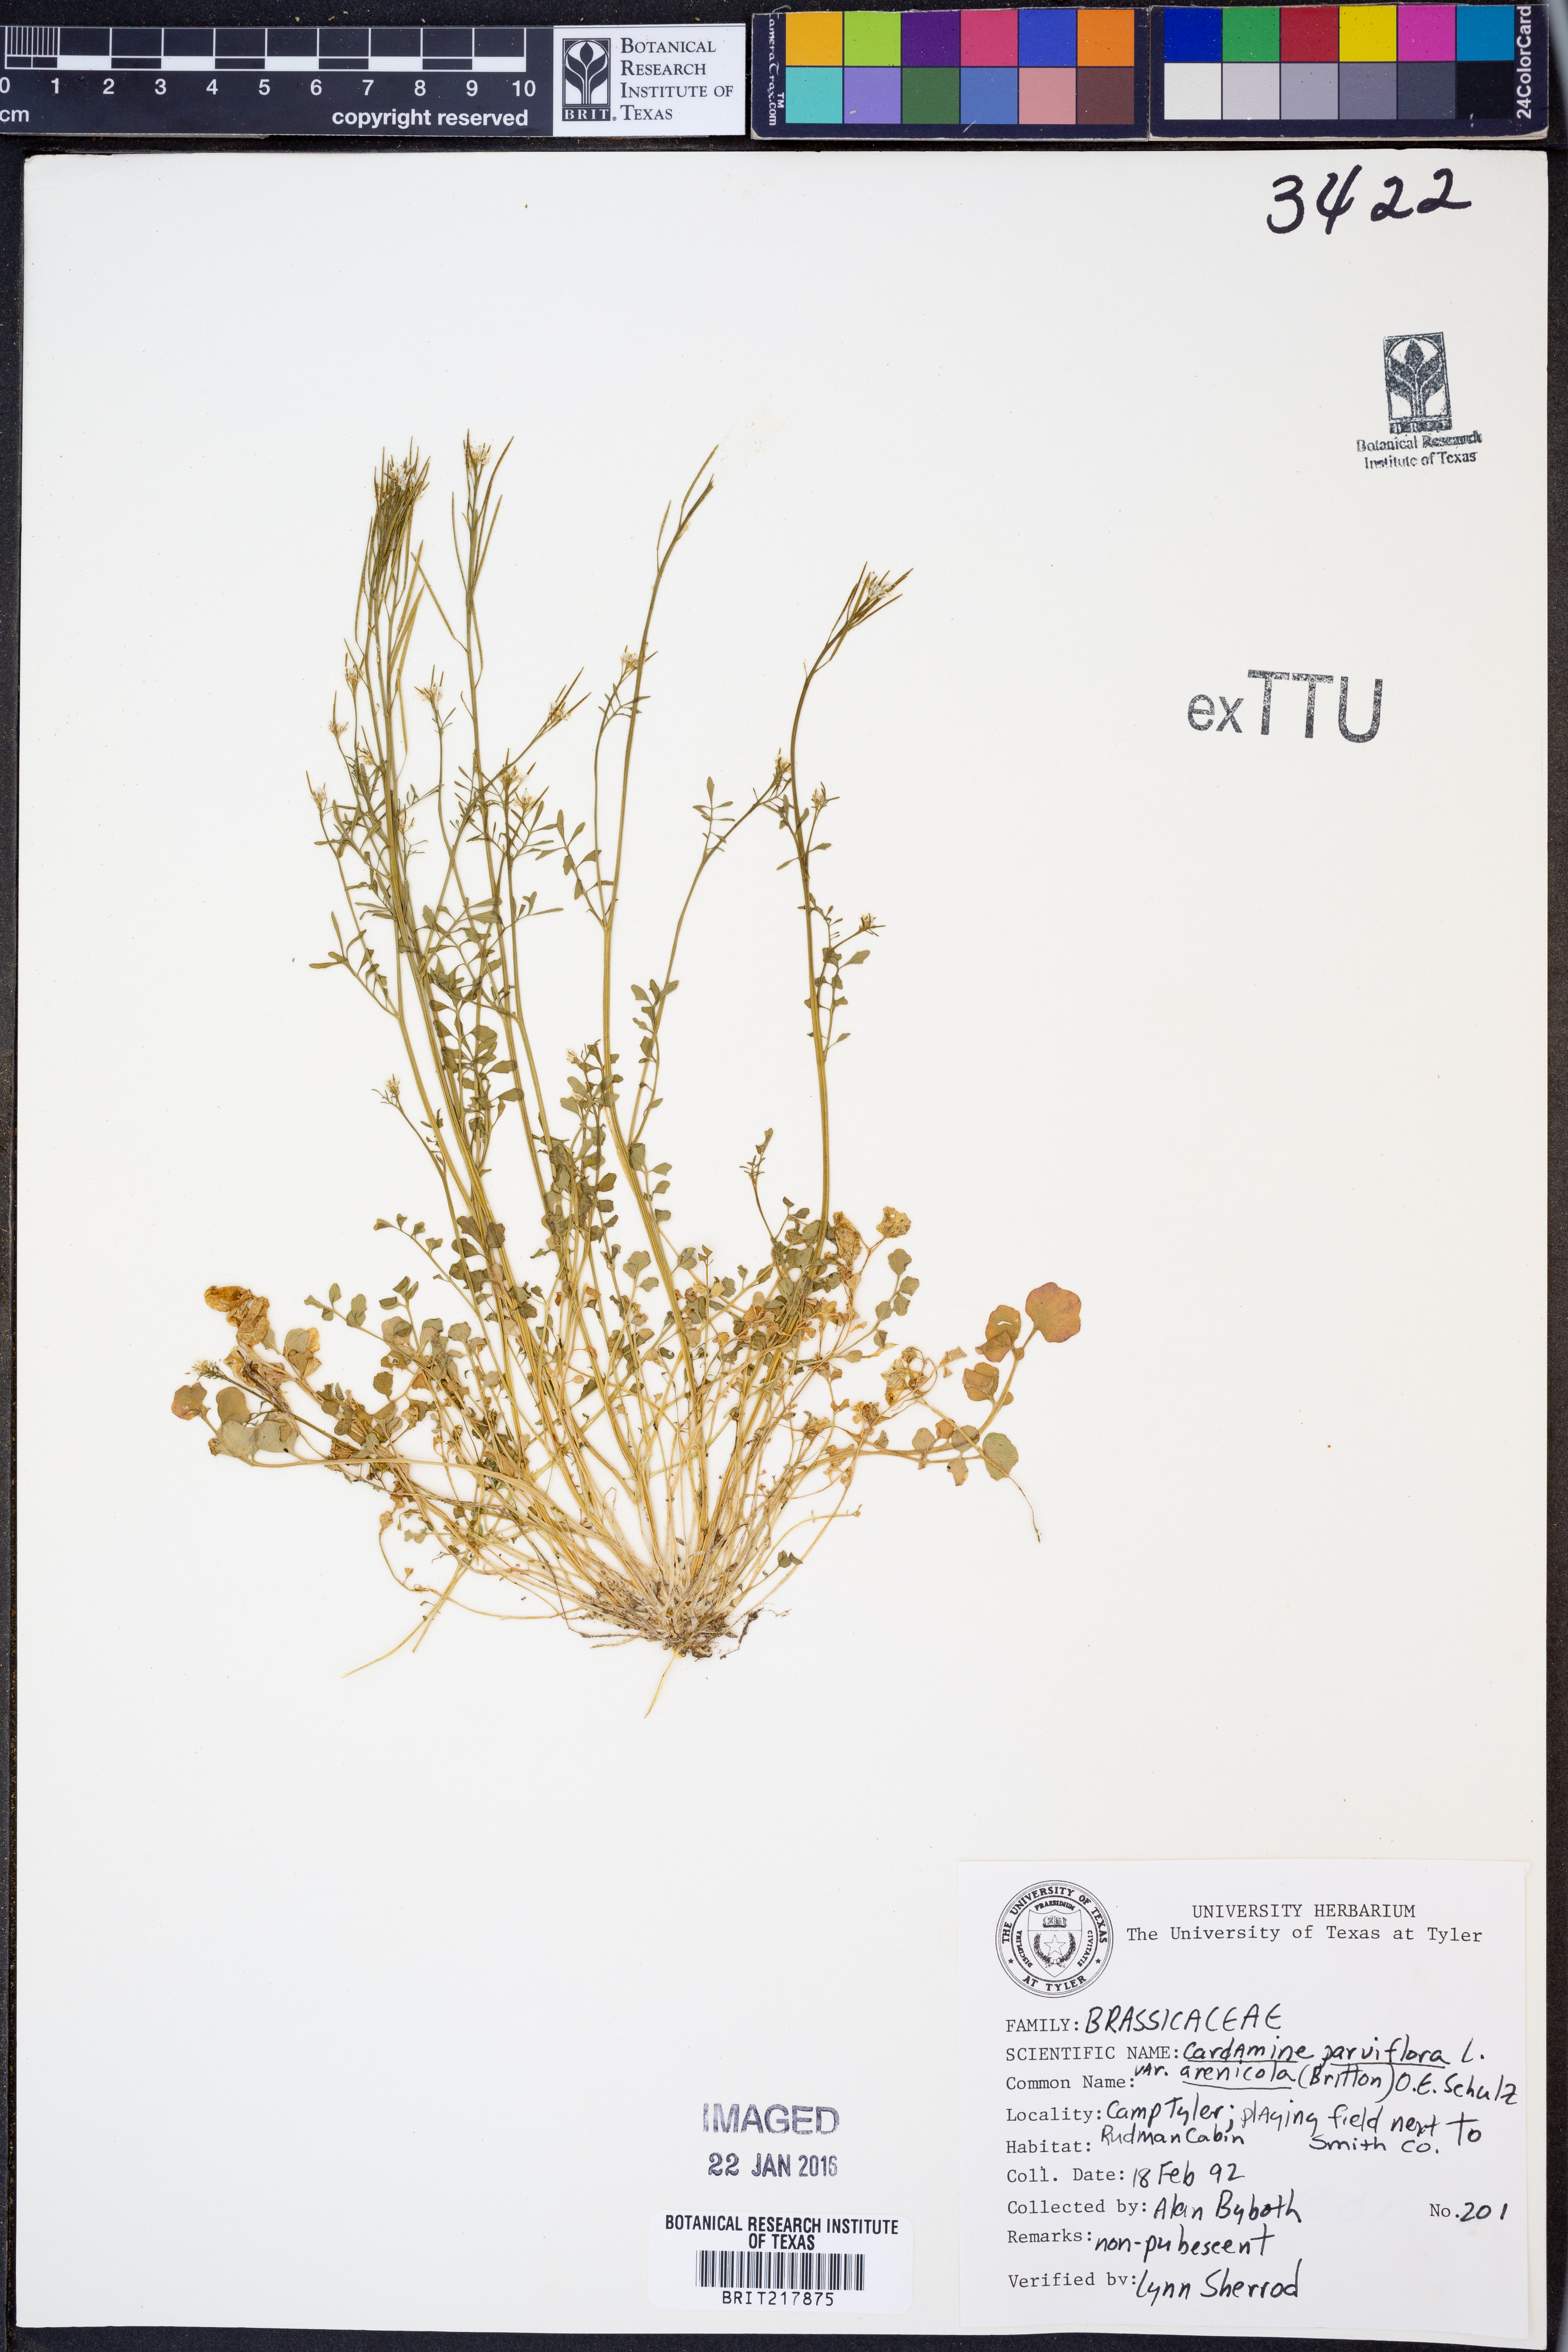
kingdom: Plantae
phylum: Tracheophyta
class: Magnoliopsida
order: Brassicales
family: Brassicaceae
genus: Cardamine
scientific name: Cardamine parviflora
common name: Sand bittercress
